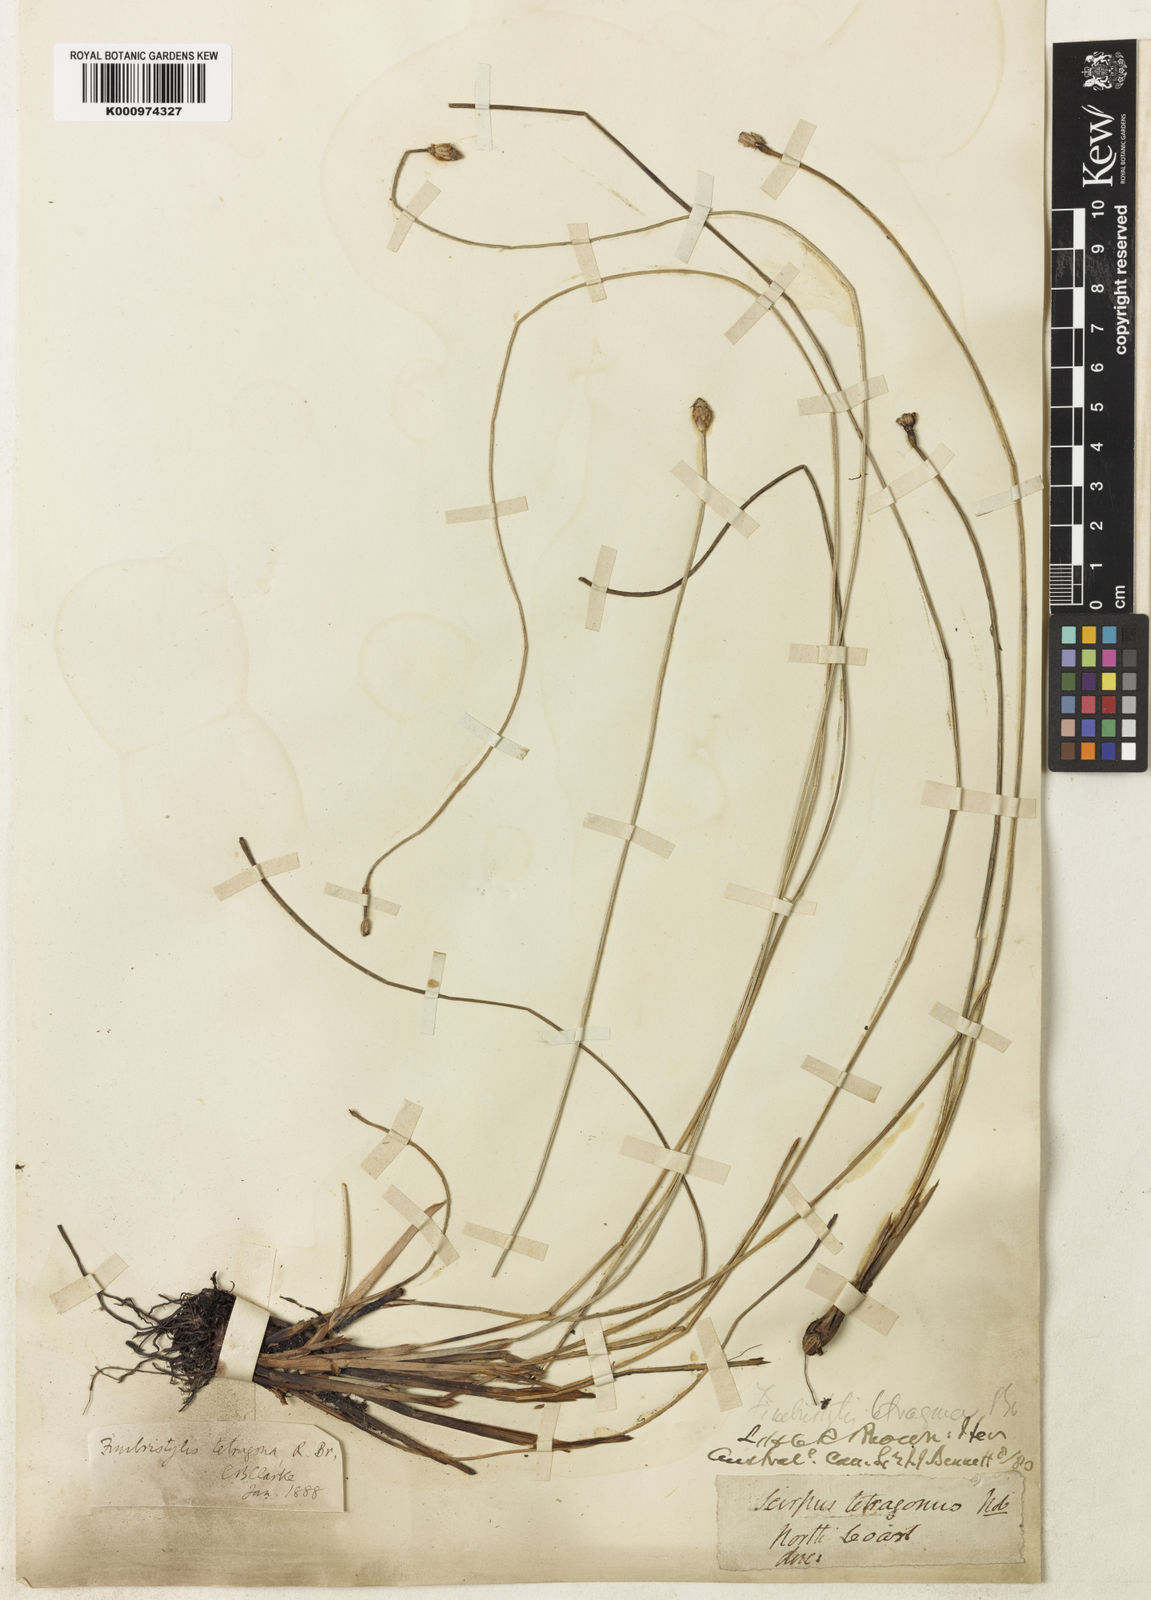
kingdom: Plantae
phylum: Tracheophyta
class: Liliopsida
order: Poales
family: Cyperaceae
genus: Fimbristylis
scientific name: Fimbristylis tetragona
